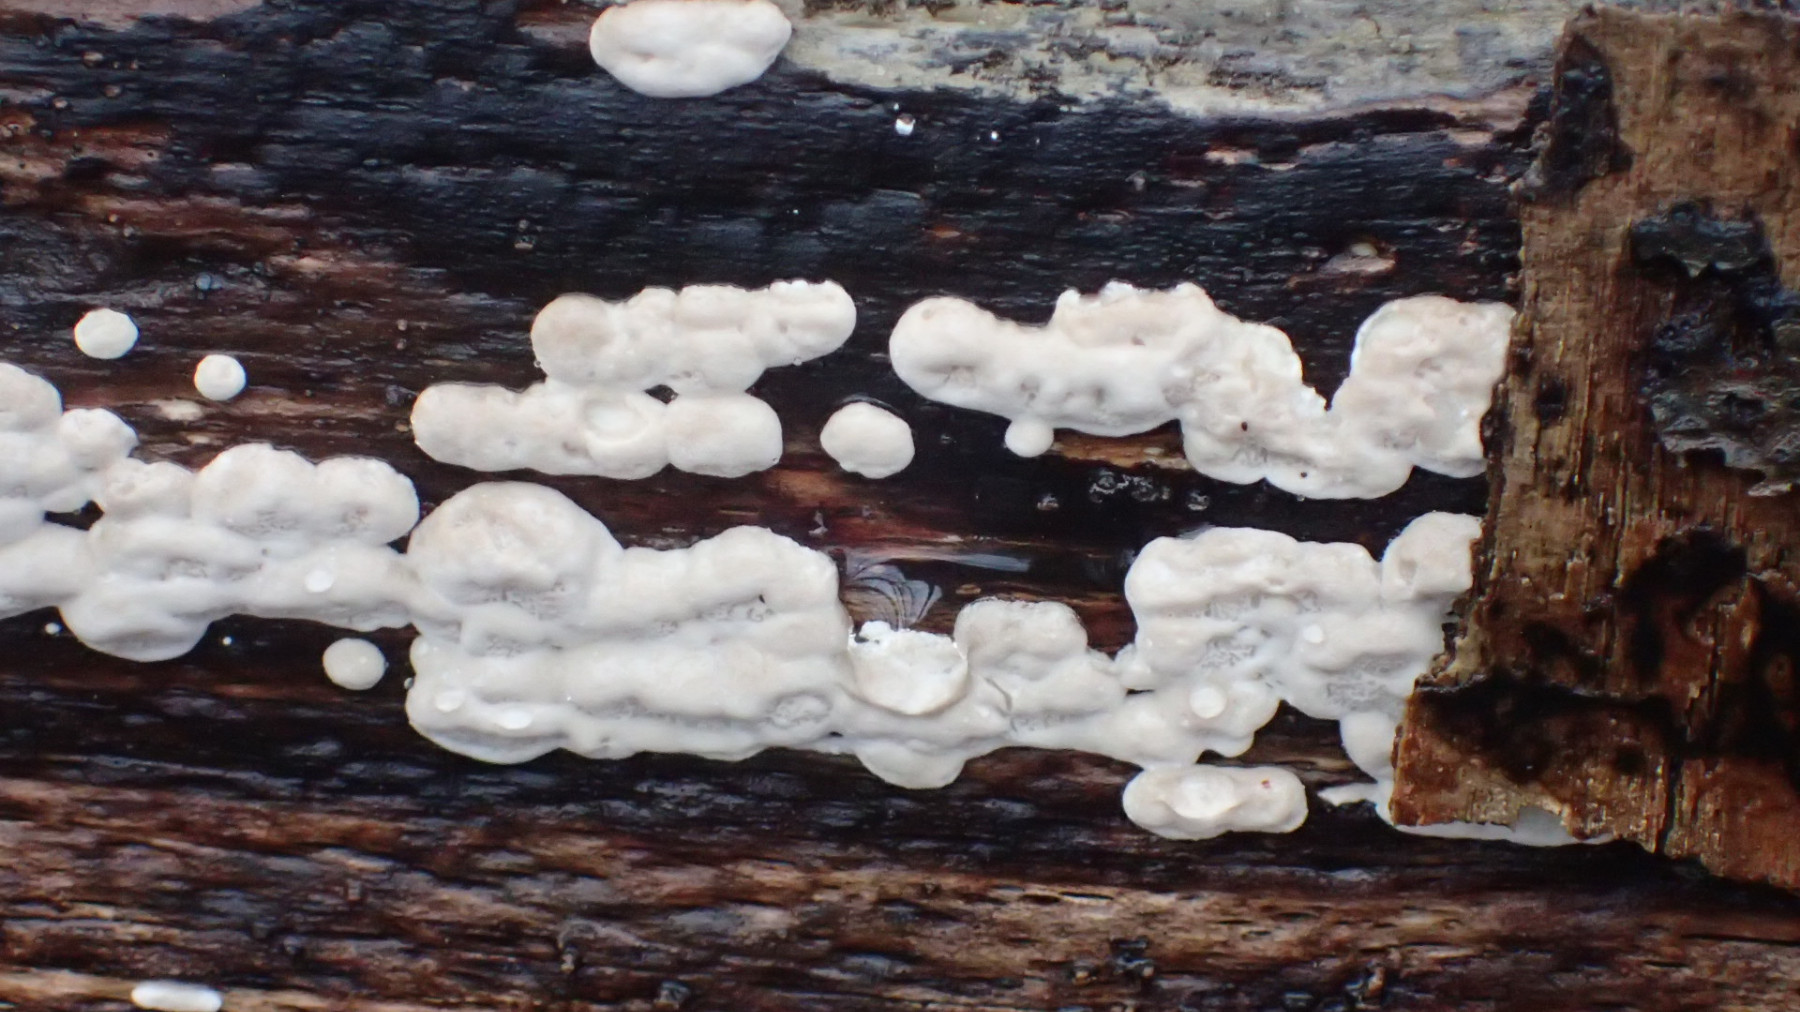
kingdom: Fungi
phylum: Basidiomycota
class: Agaricomycetes
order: Polyporales
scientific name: Polyporales
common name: poresvampordenen
